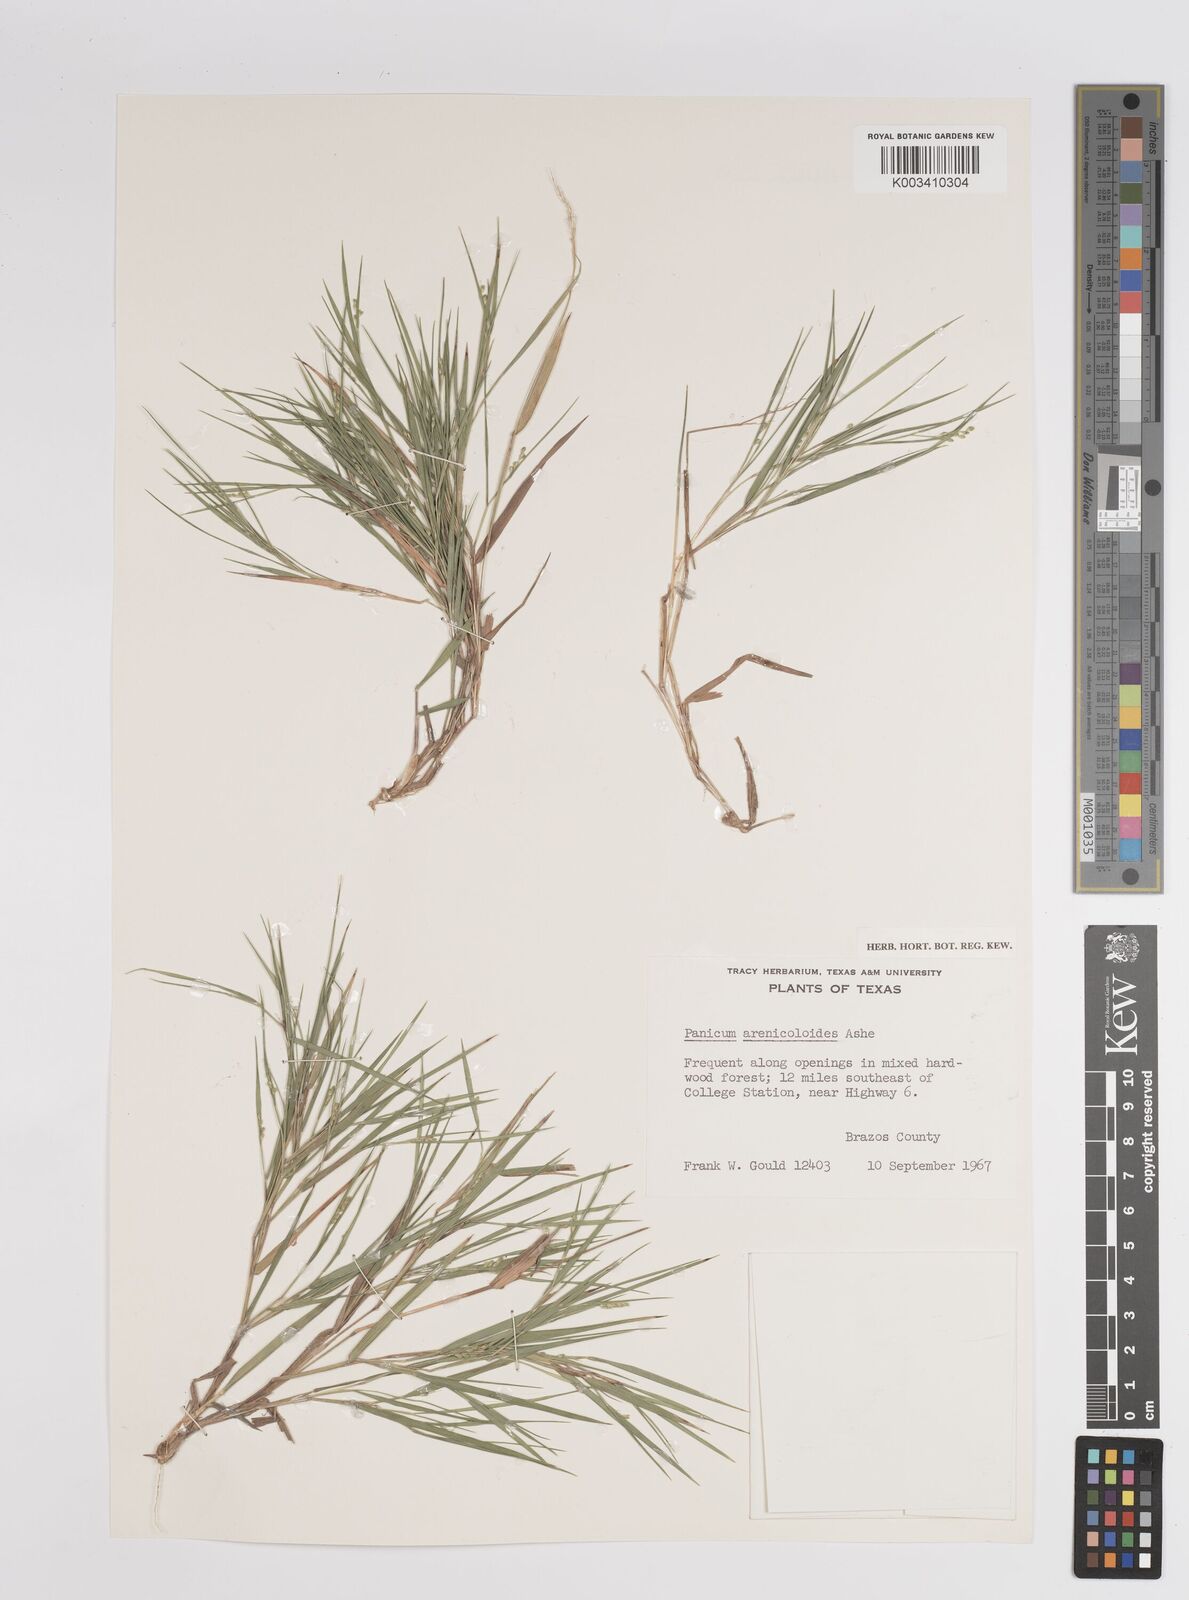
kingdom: Plantae
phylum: Tracheophyta
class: Liliopsida
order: Poales
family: Poaceae
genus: Dichanthelium
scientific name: Dichanthelium aciculare
